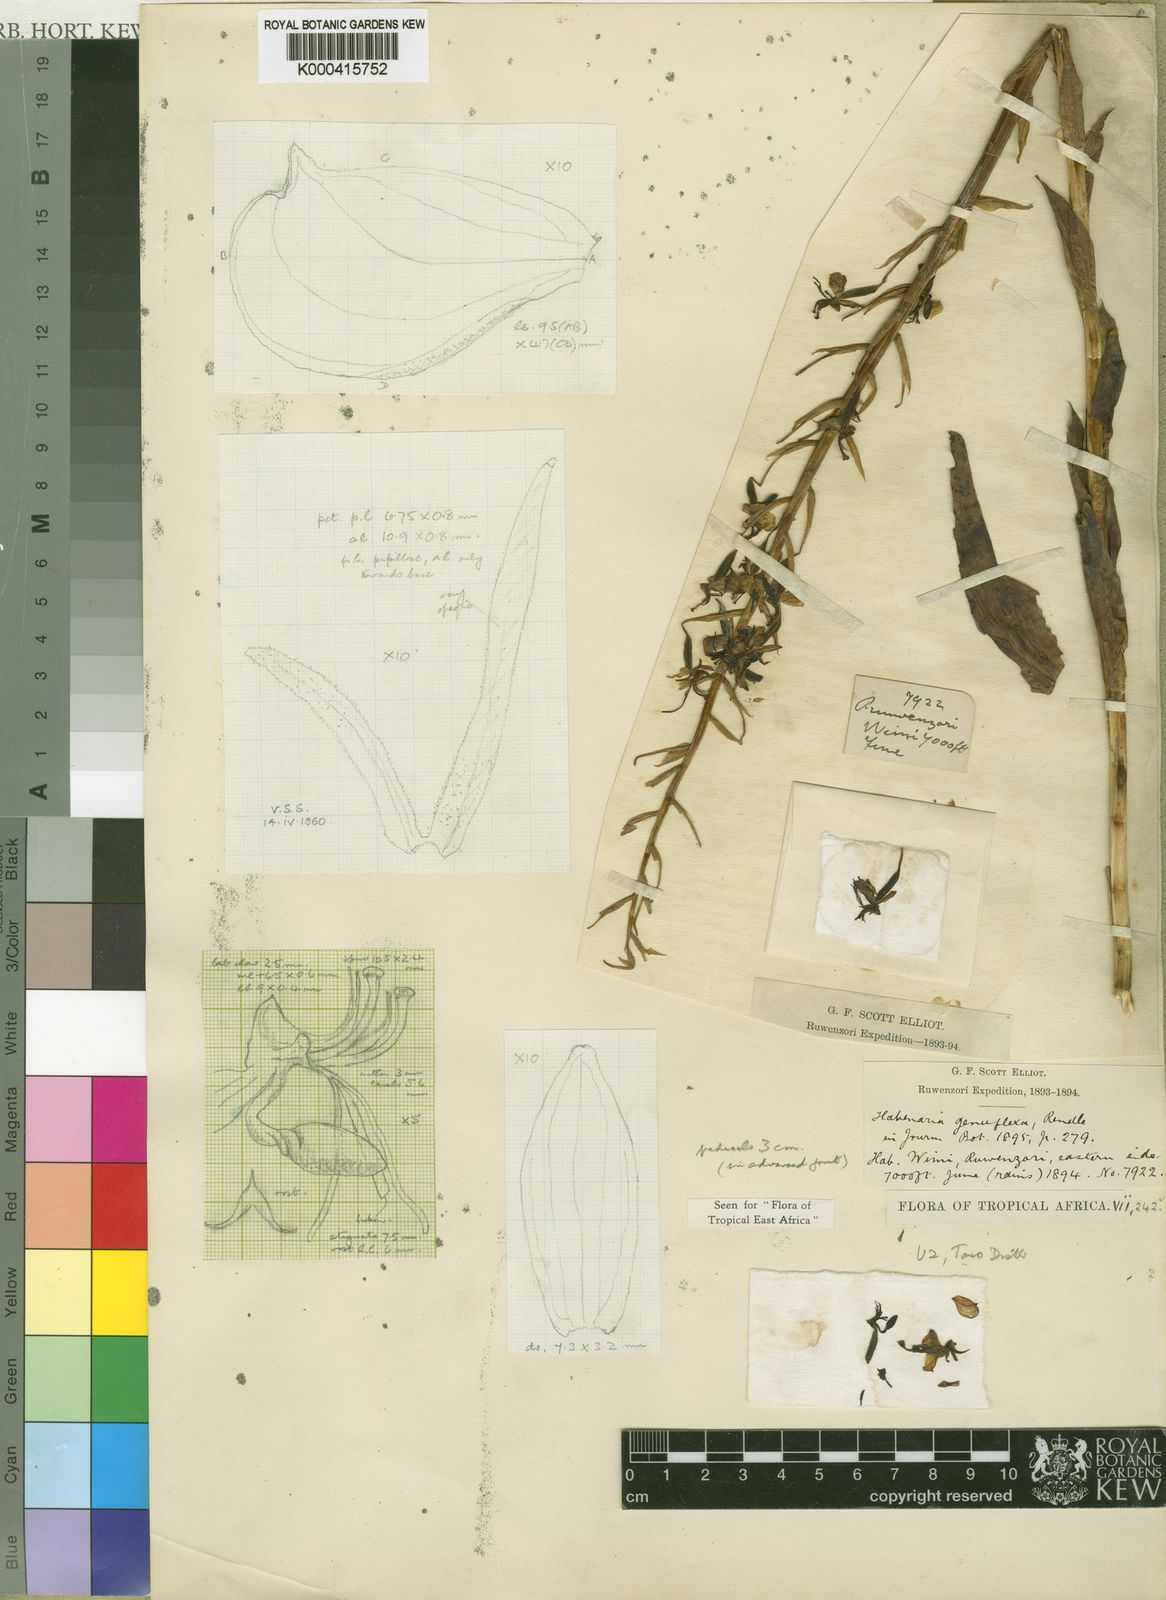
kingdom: Plantae
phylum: Tracheophyta
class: Liliopsida
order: Asparagales
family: Orchidaceae
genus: Habenaria
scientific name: Habenaria genuflexa
